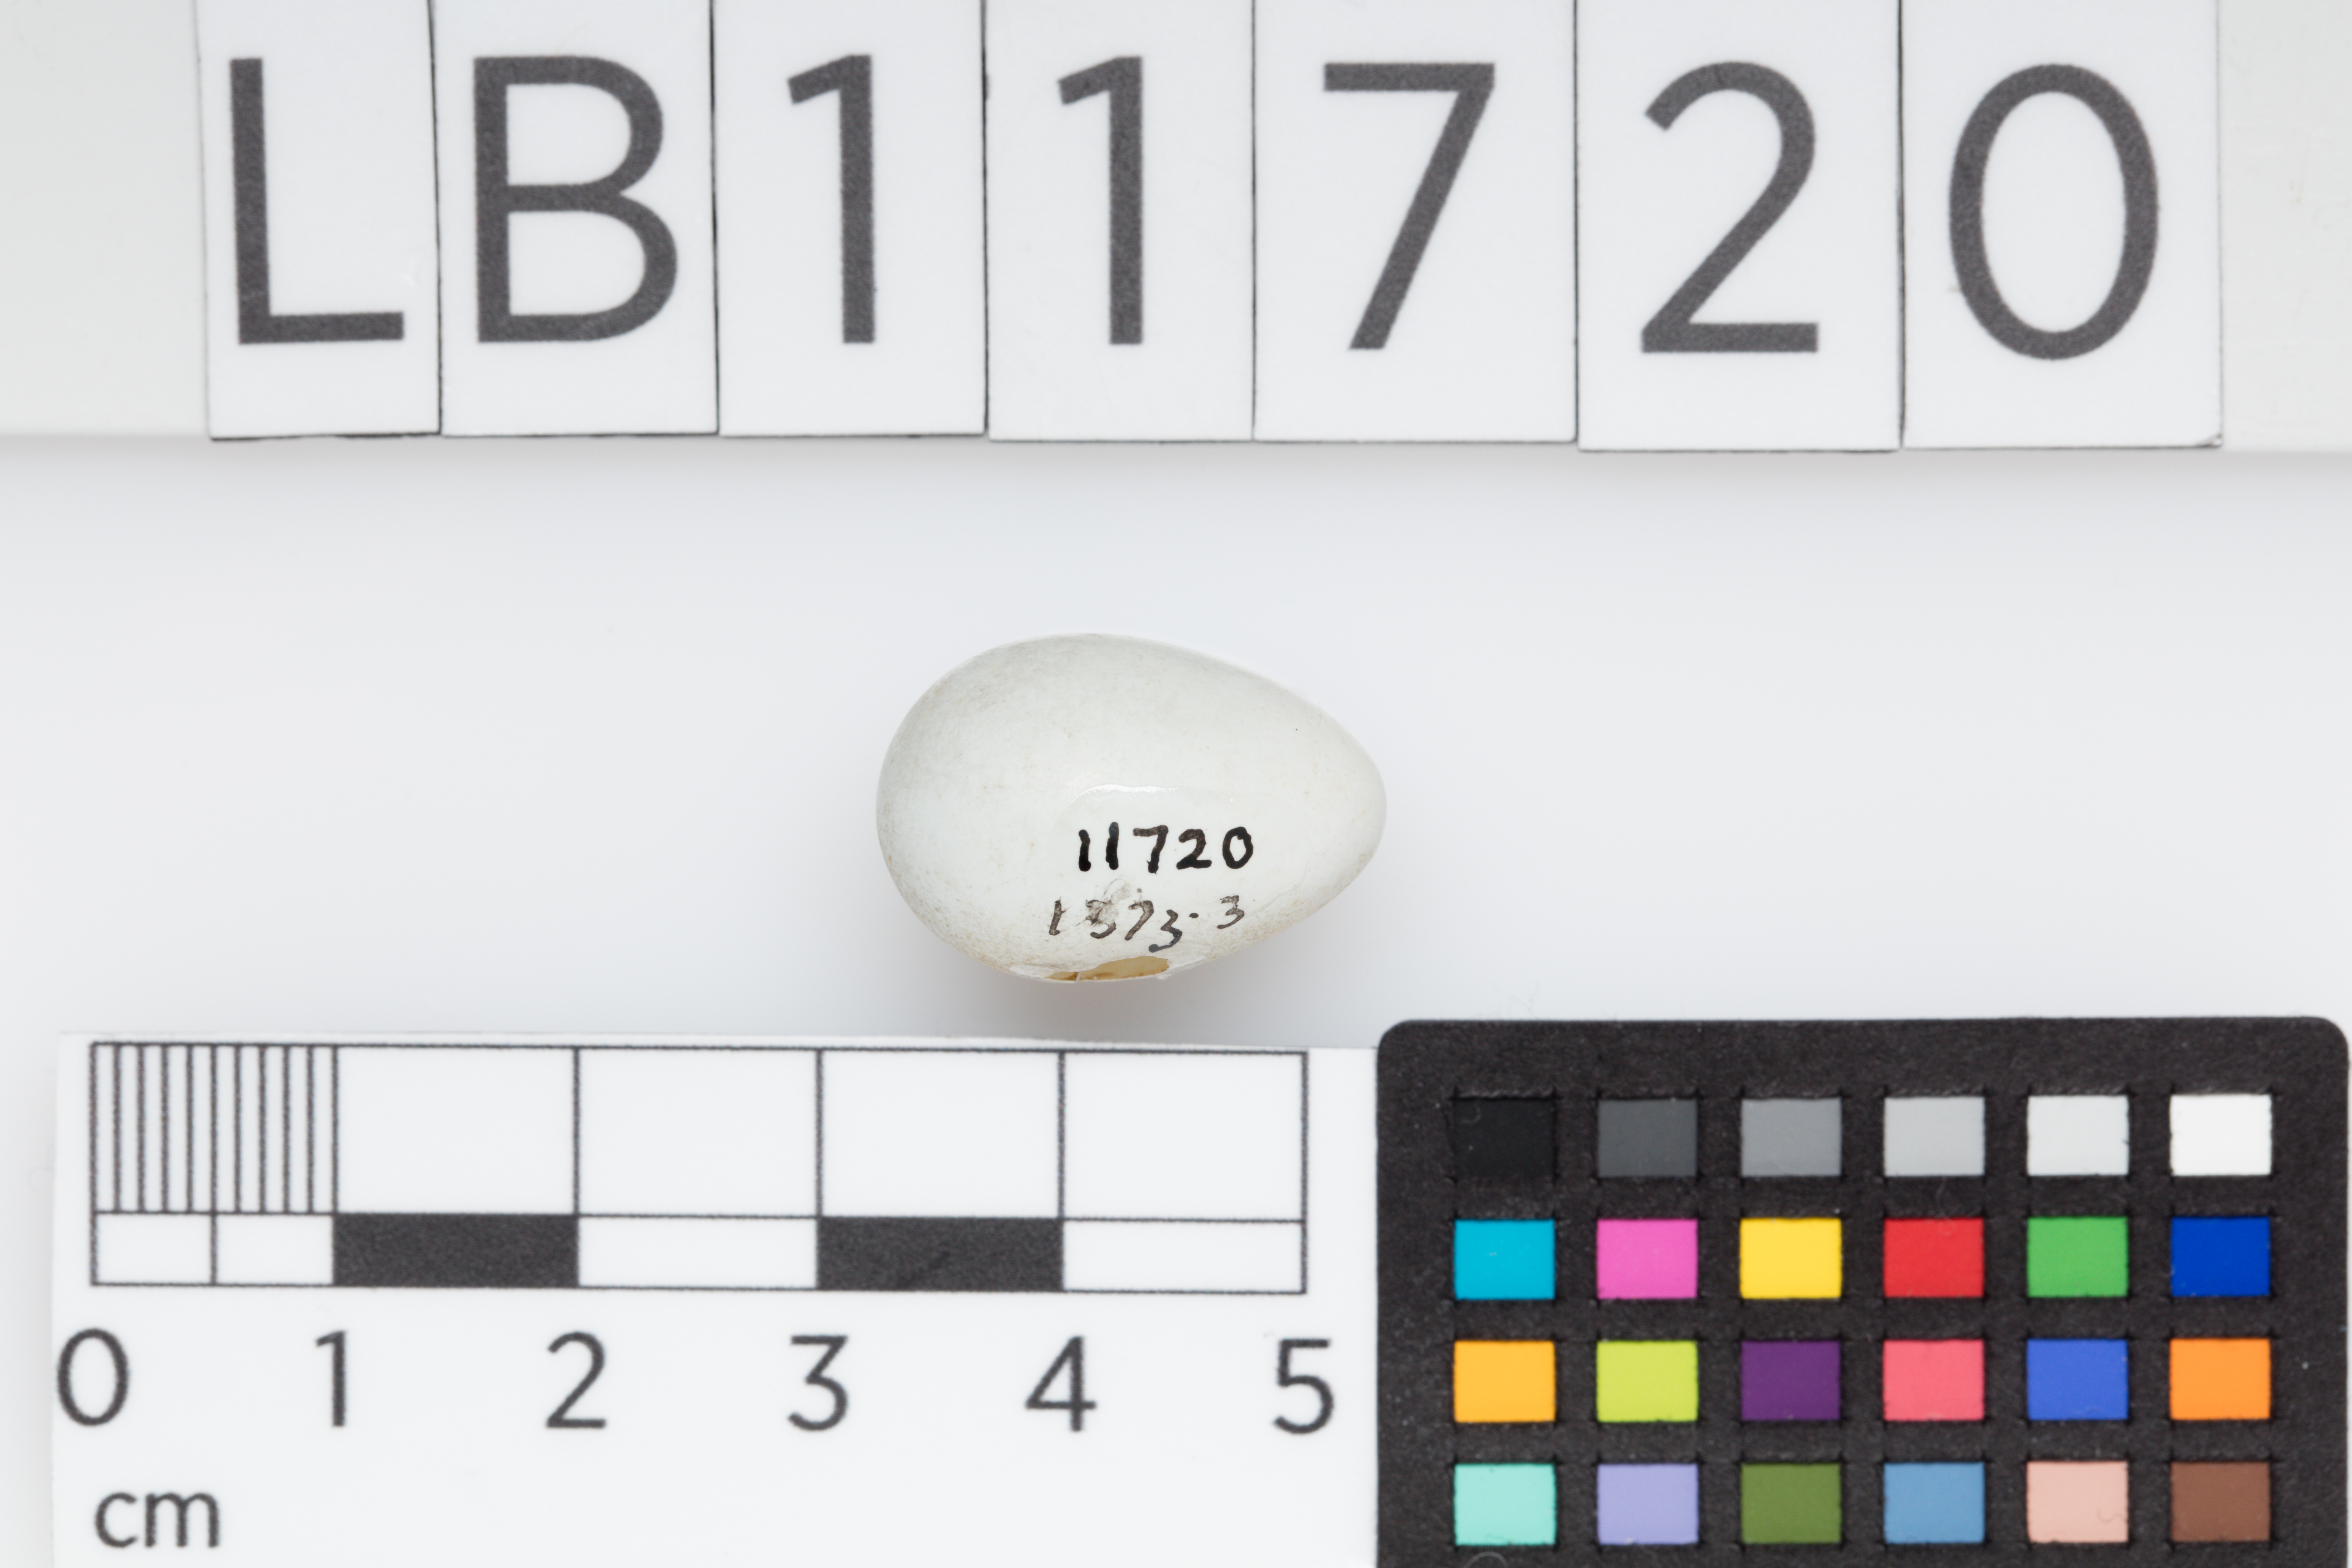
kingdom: Animalia
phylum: Chordata
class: Aves
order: Passeriformes
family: Zosteropidae
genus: Zosterops
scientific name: Zosterops tenuirostris
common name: Slender-billed white-eye
